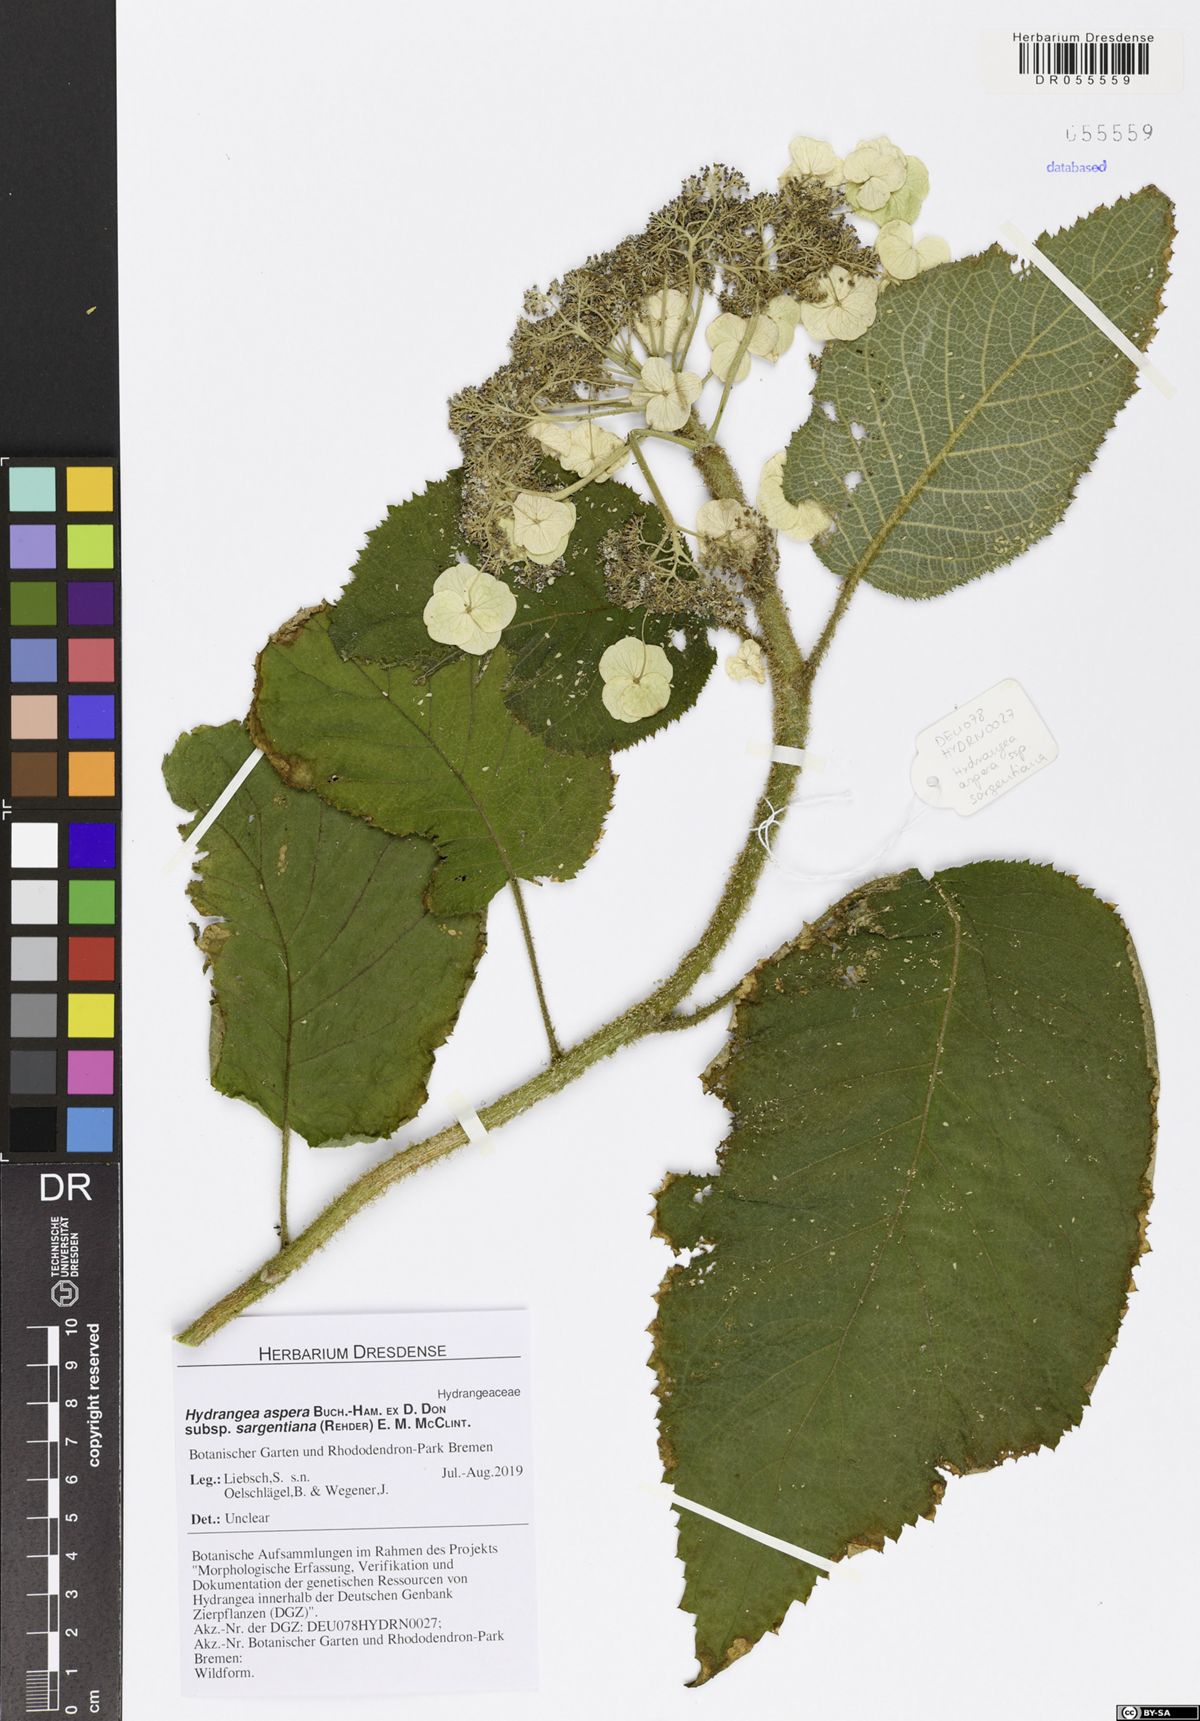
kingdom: Plantae
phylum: Tracheophyta
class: Magnoliopsida
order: Cornales
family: Hydrangeaceae
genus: Hydrangea
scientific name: Hydrangea sargentiana
